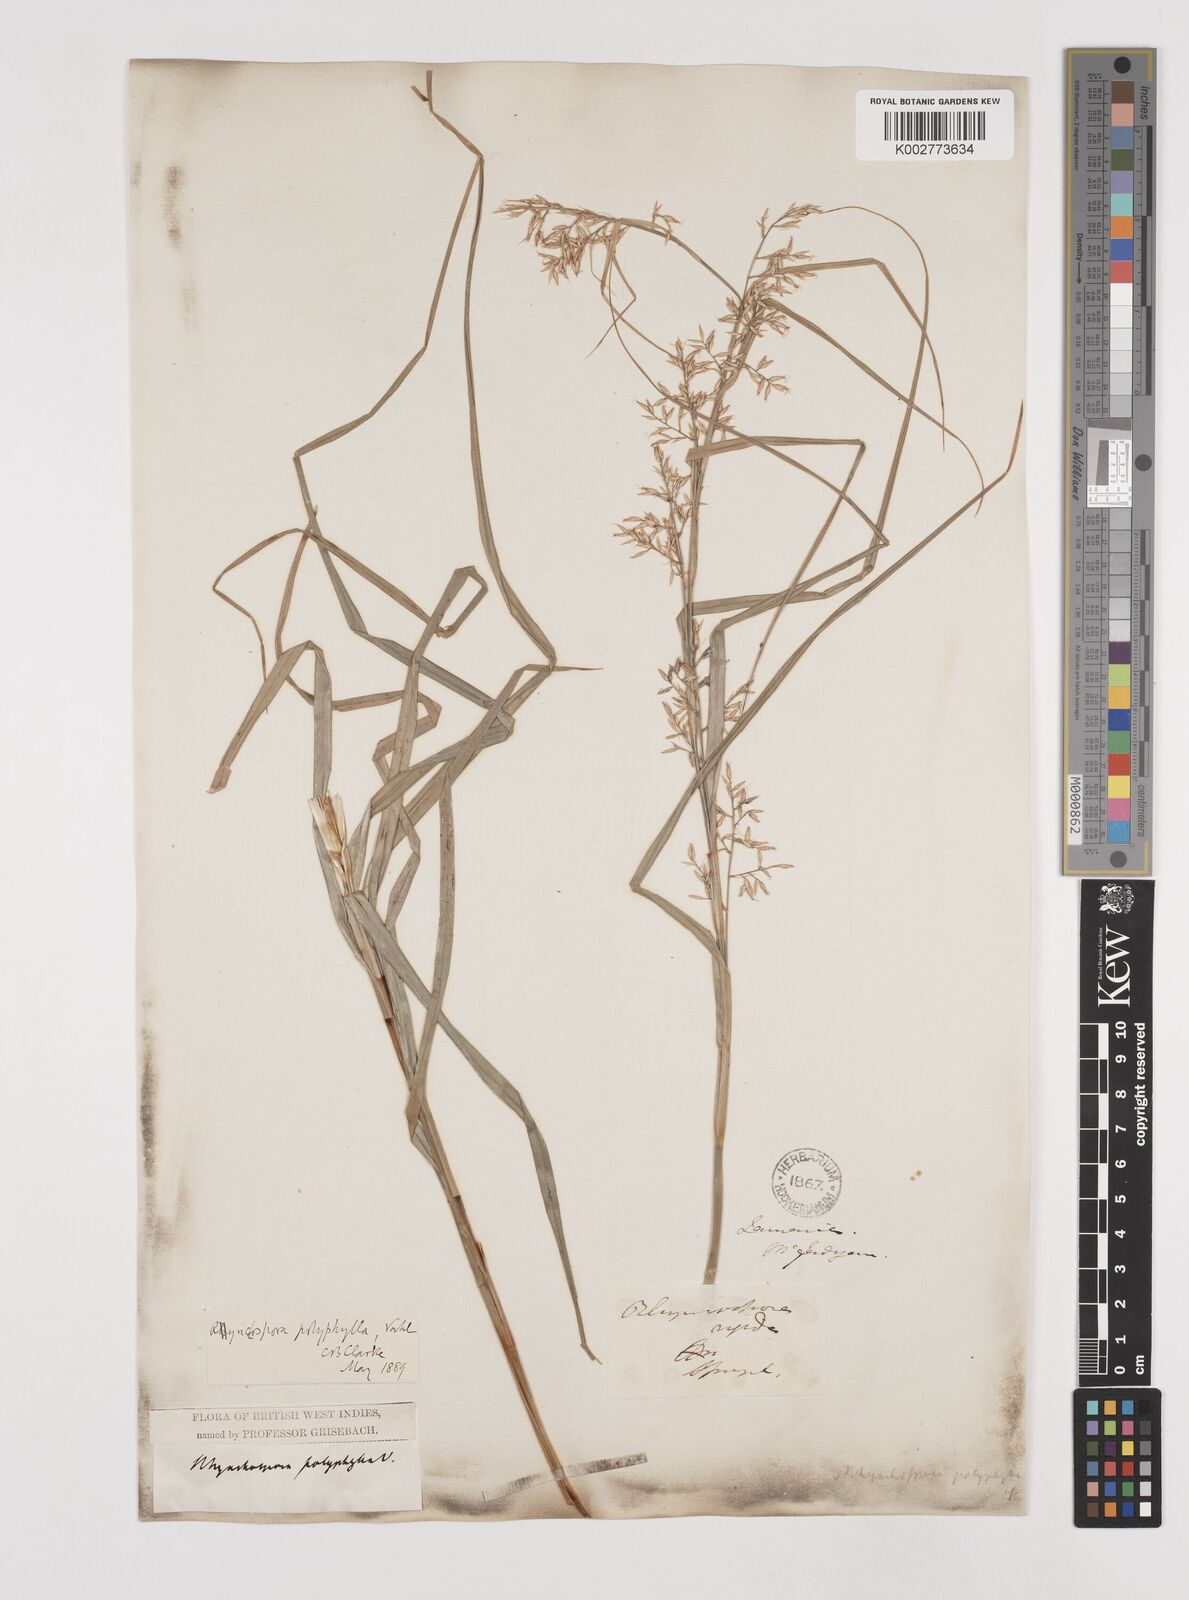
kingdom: Plantae
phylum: Tracheophyta
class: Liliopsida
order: Poales
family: Cyperaceae
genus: Rhynchospora
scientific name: Rhynchospora polyphylla
